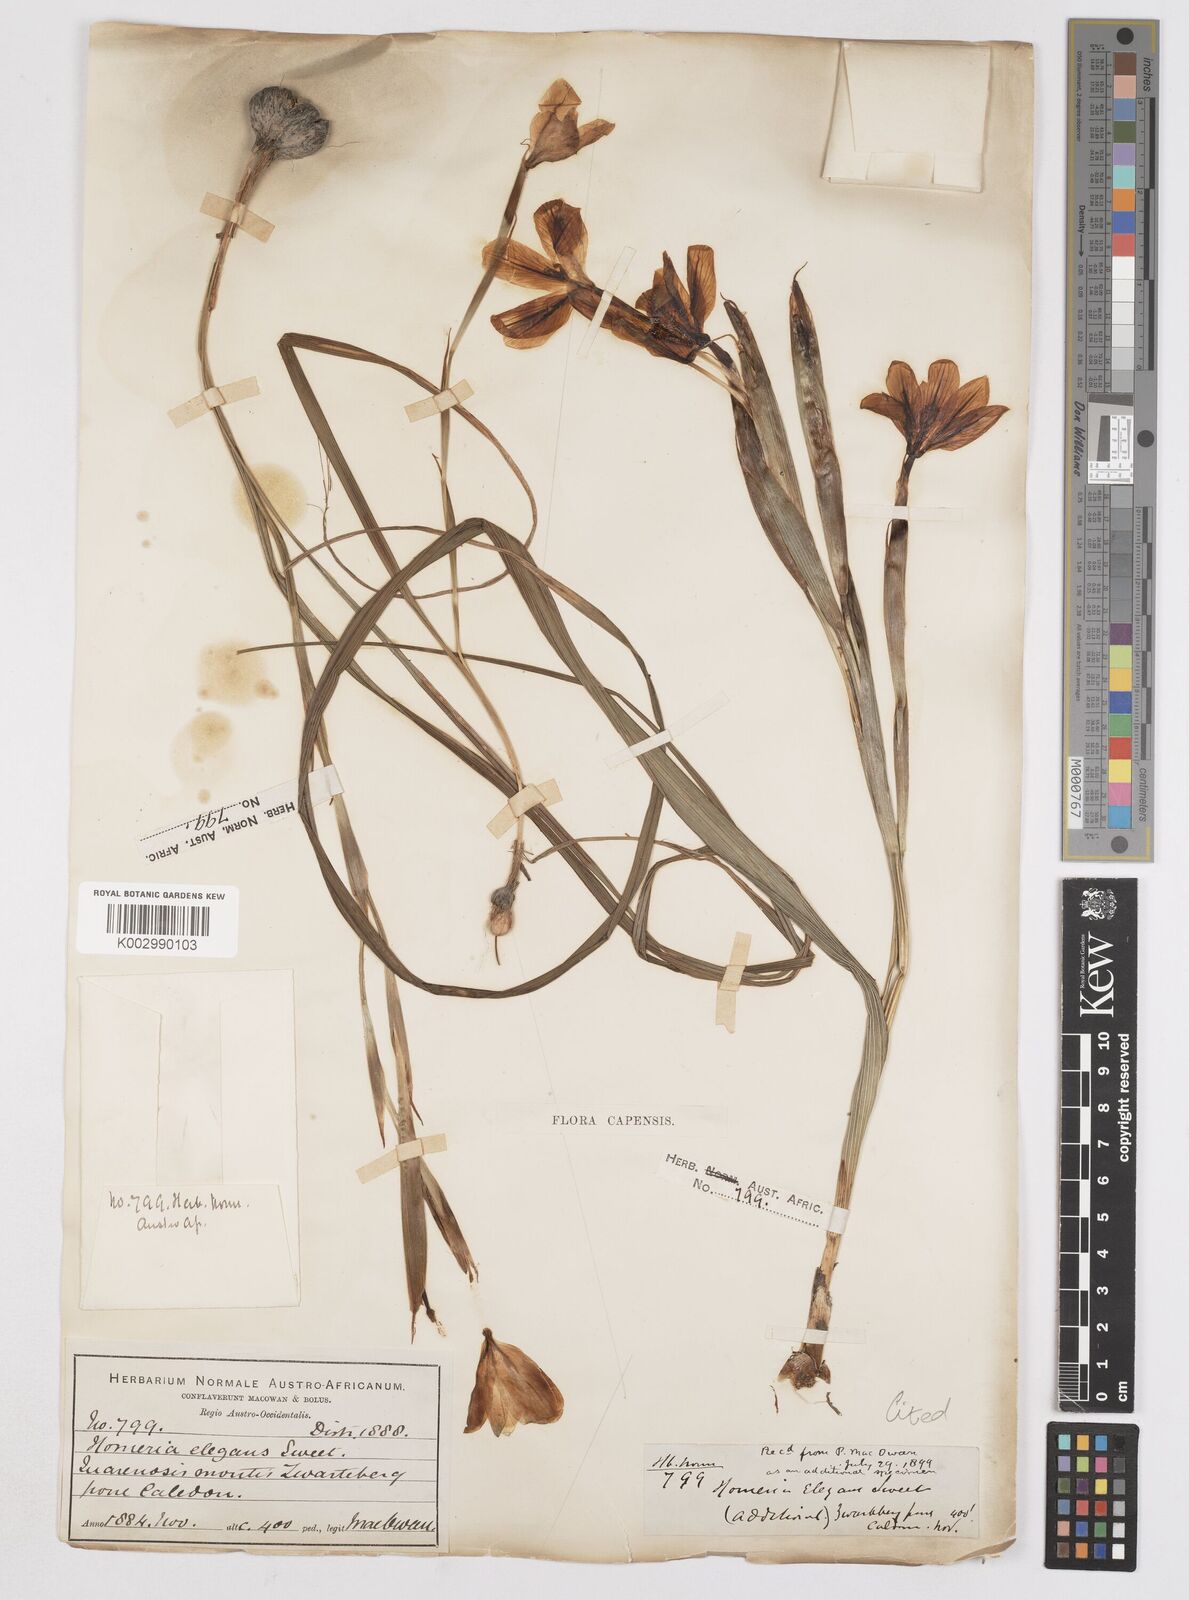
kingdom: Plantae
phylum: Tracheophyta
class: Liliopsida
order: Asparagales
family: Iridaceae
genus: Moraea
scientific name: Moraea elegans
